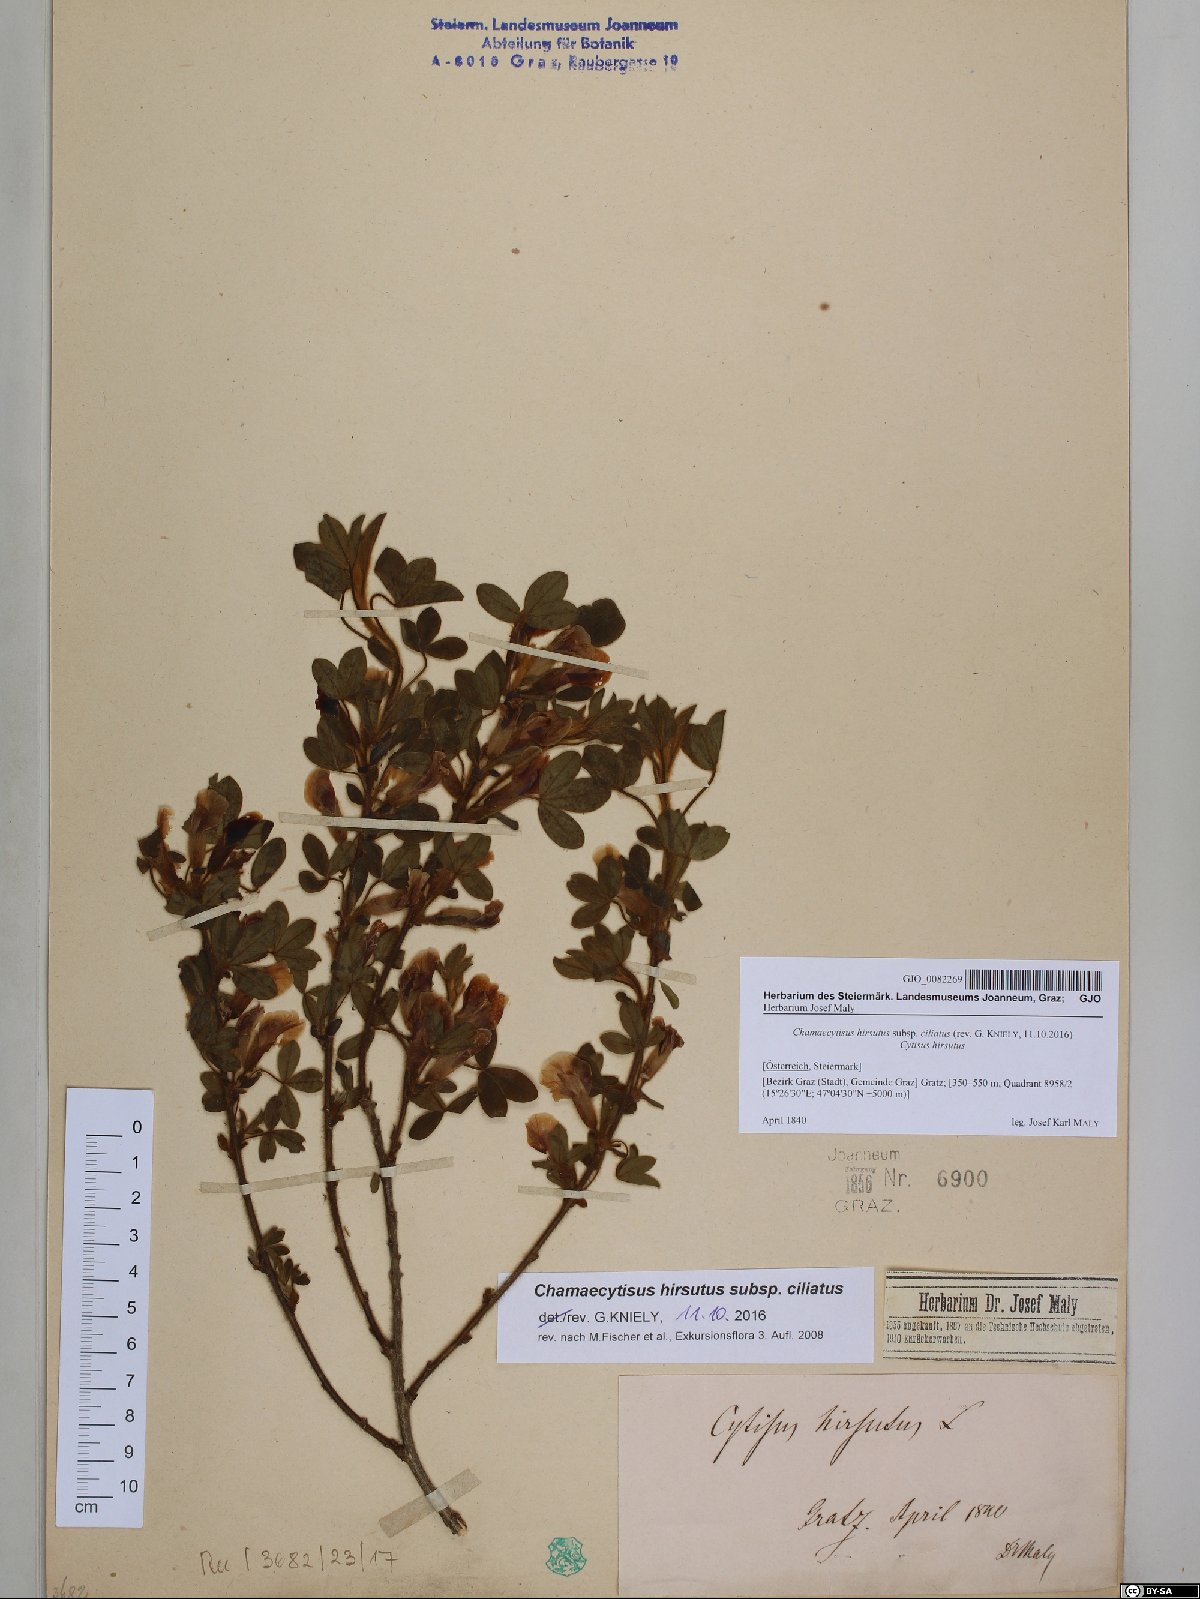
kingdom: Plantae
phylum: Tracheophyta
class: Magnoliopsida
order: Fabales
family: Fabaceae
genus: Chamaecytisus
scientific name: Chamaecytisus hirsutus
